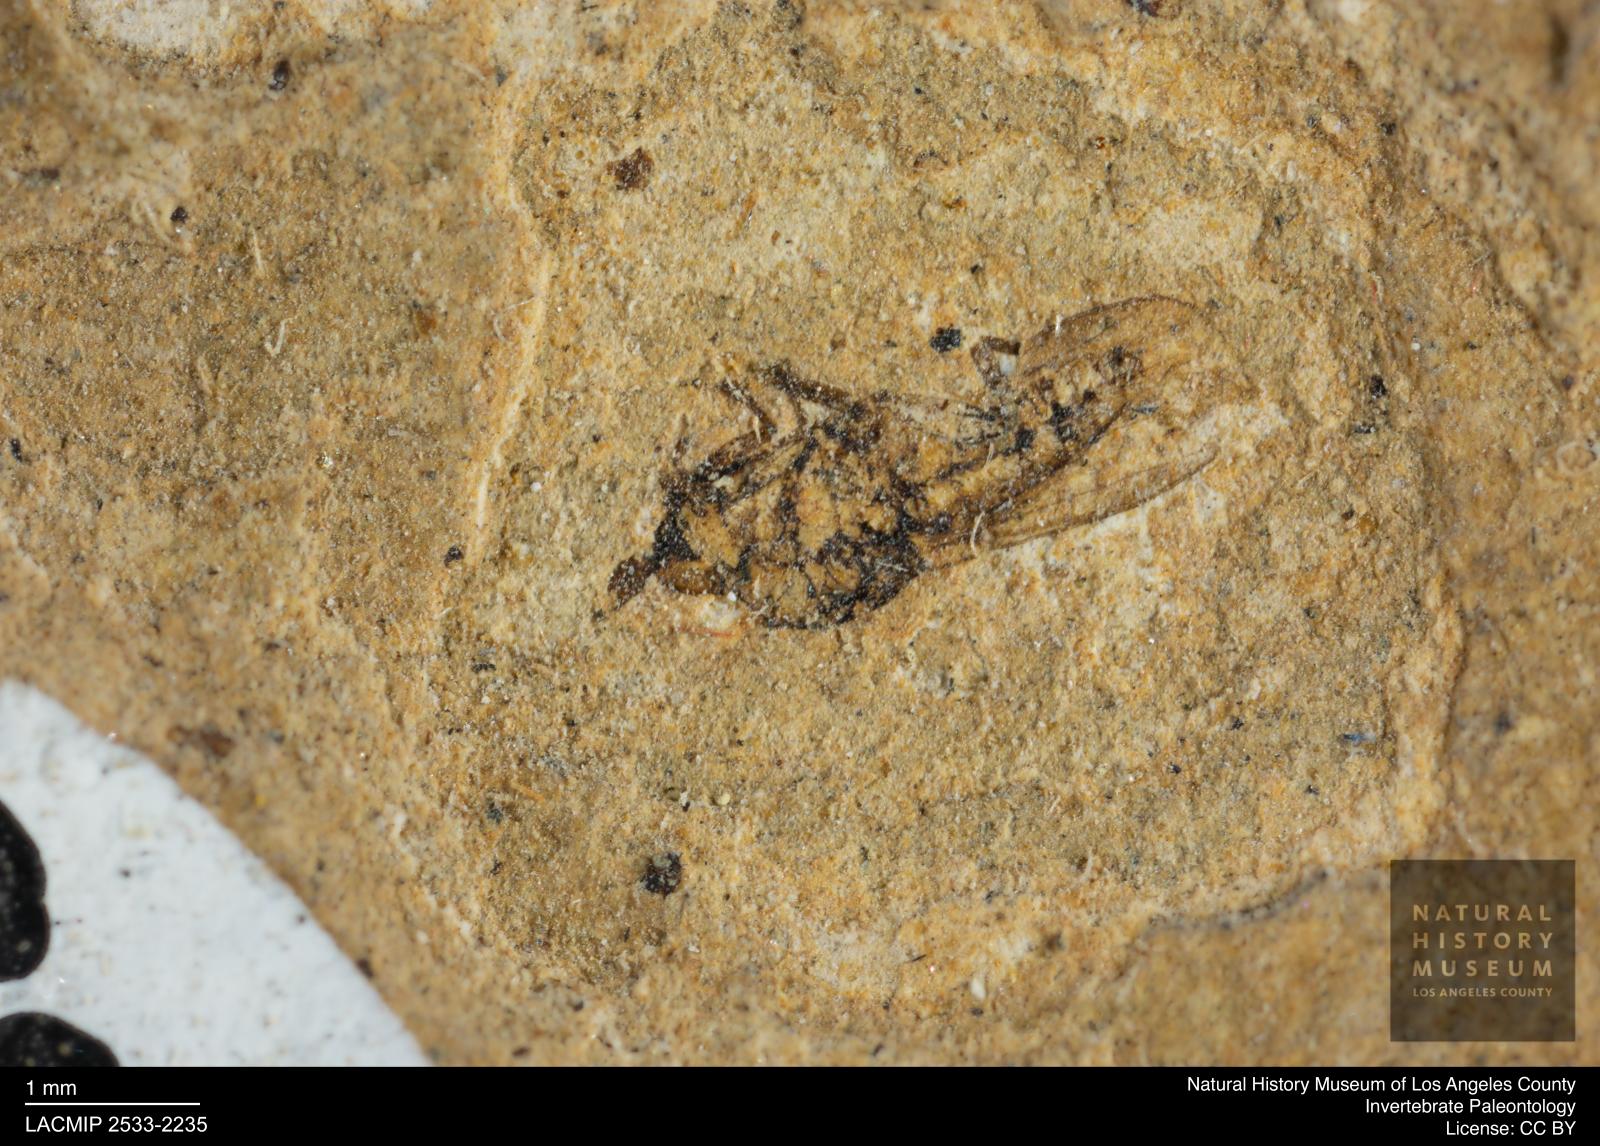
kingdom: Animalia
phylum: Arthropoda
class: Insecta
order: Diptera
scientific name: Diptera
